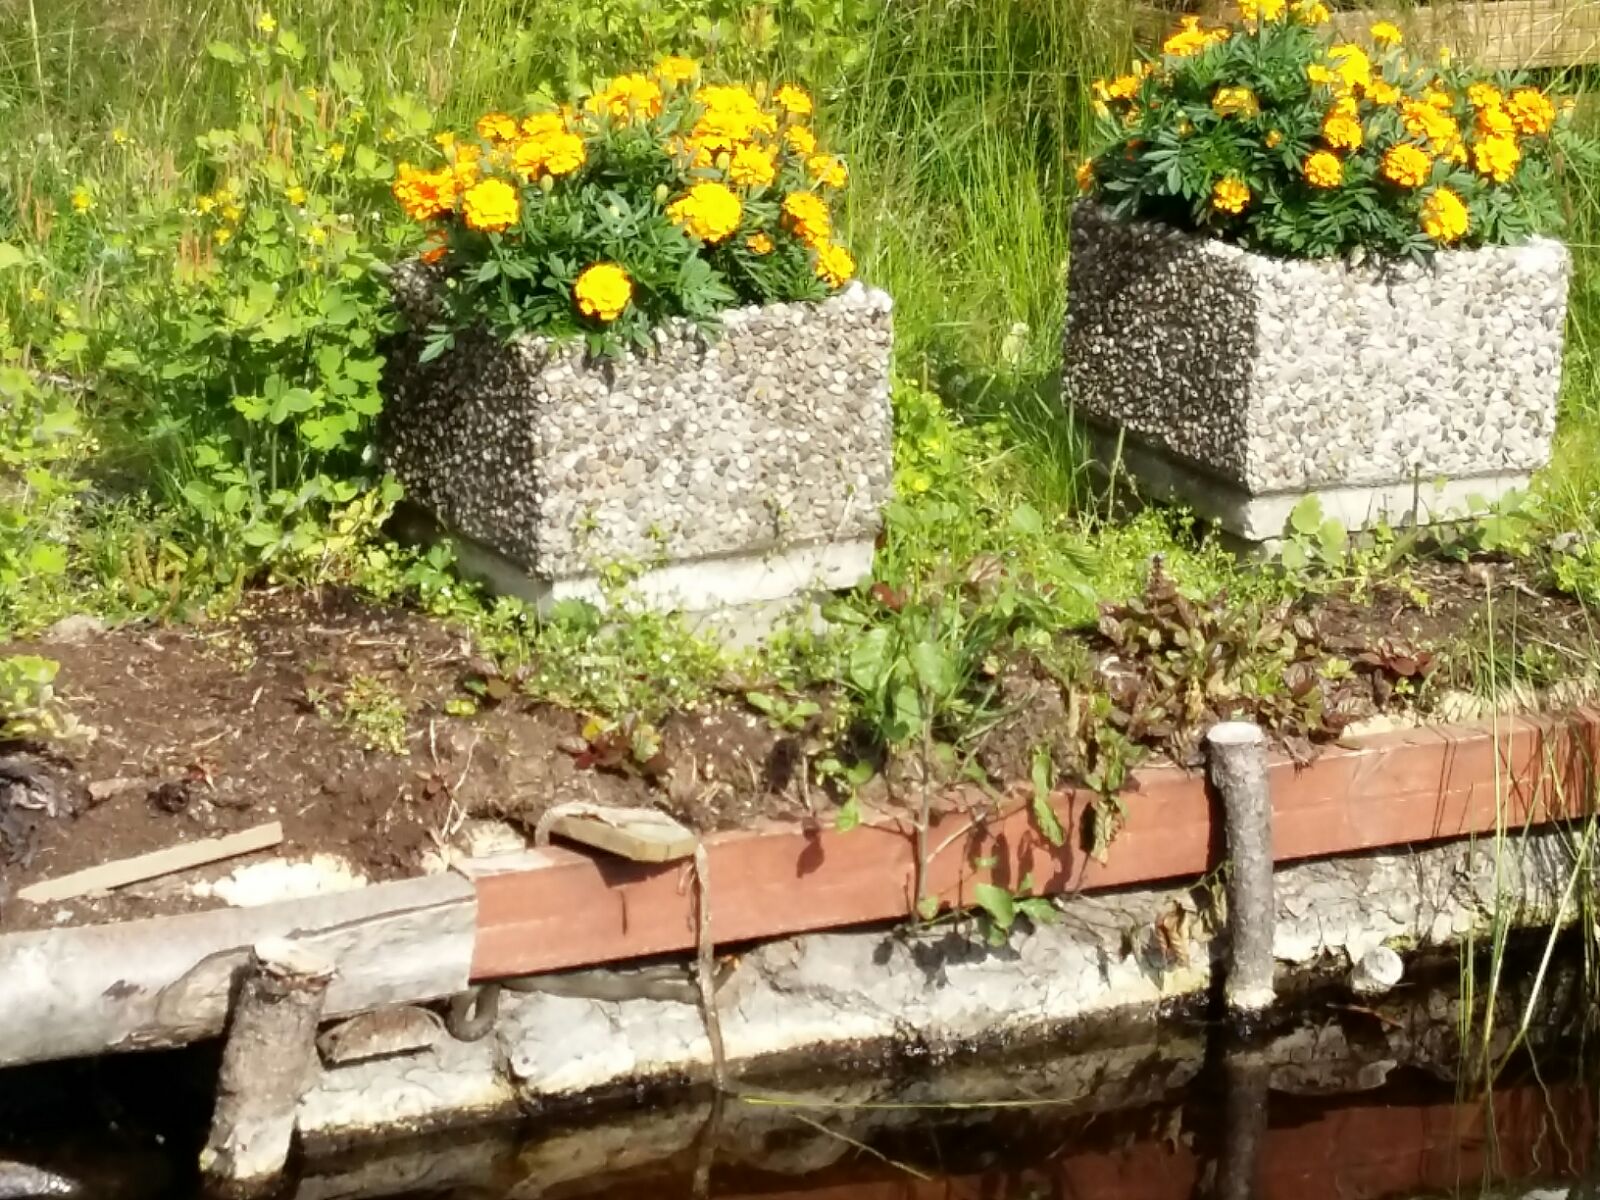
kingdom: Animalia
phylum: Chordata
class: Squamata
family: Colubridae
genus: Natrix
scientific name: Natrix natrix
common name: Grass snake
